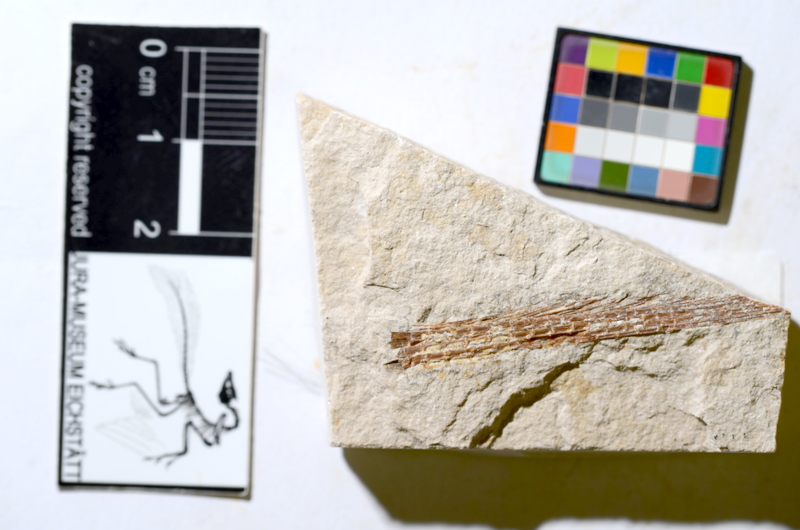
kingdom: Animalia
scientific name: Animalia
